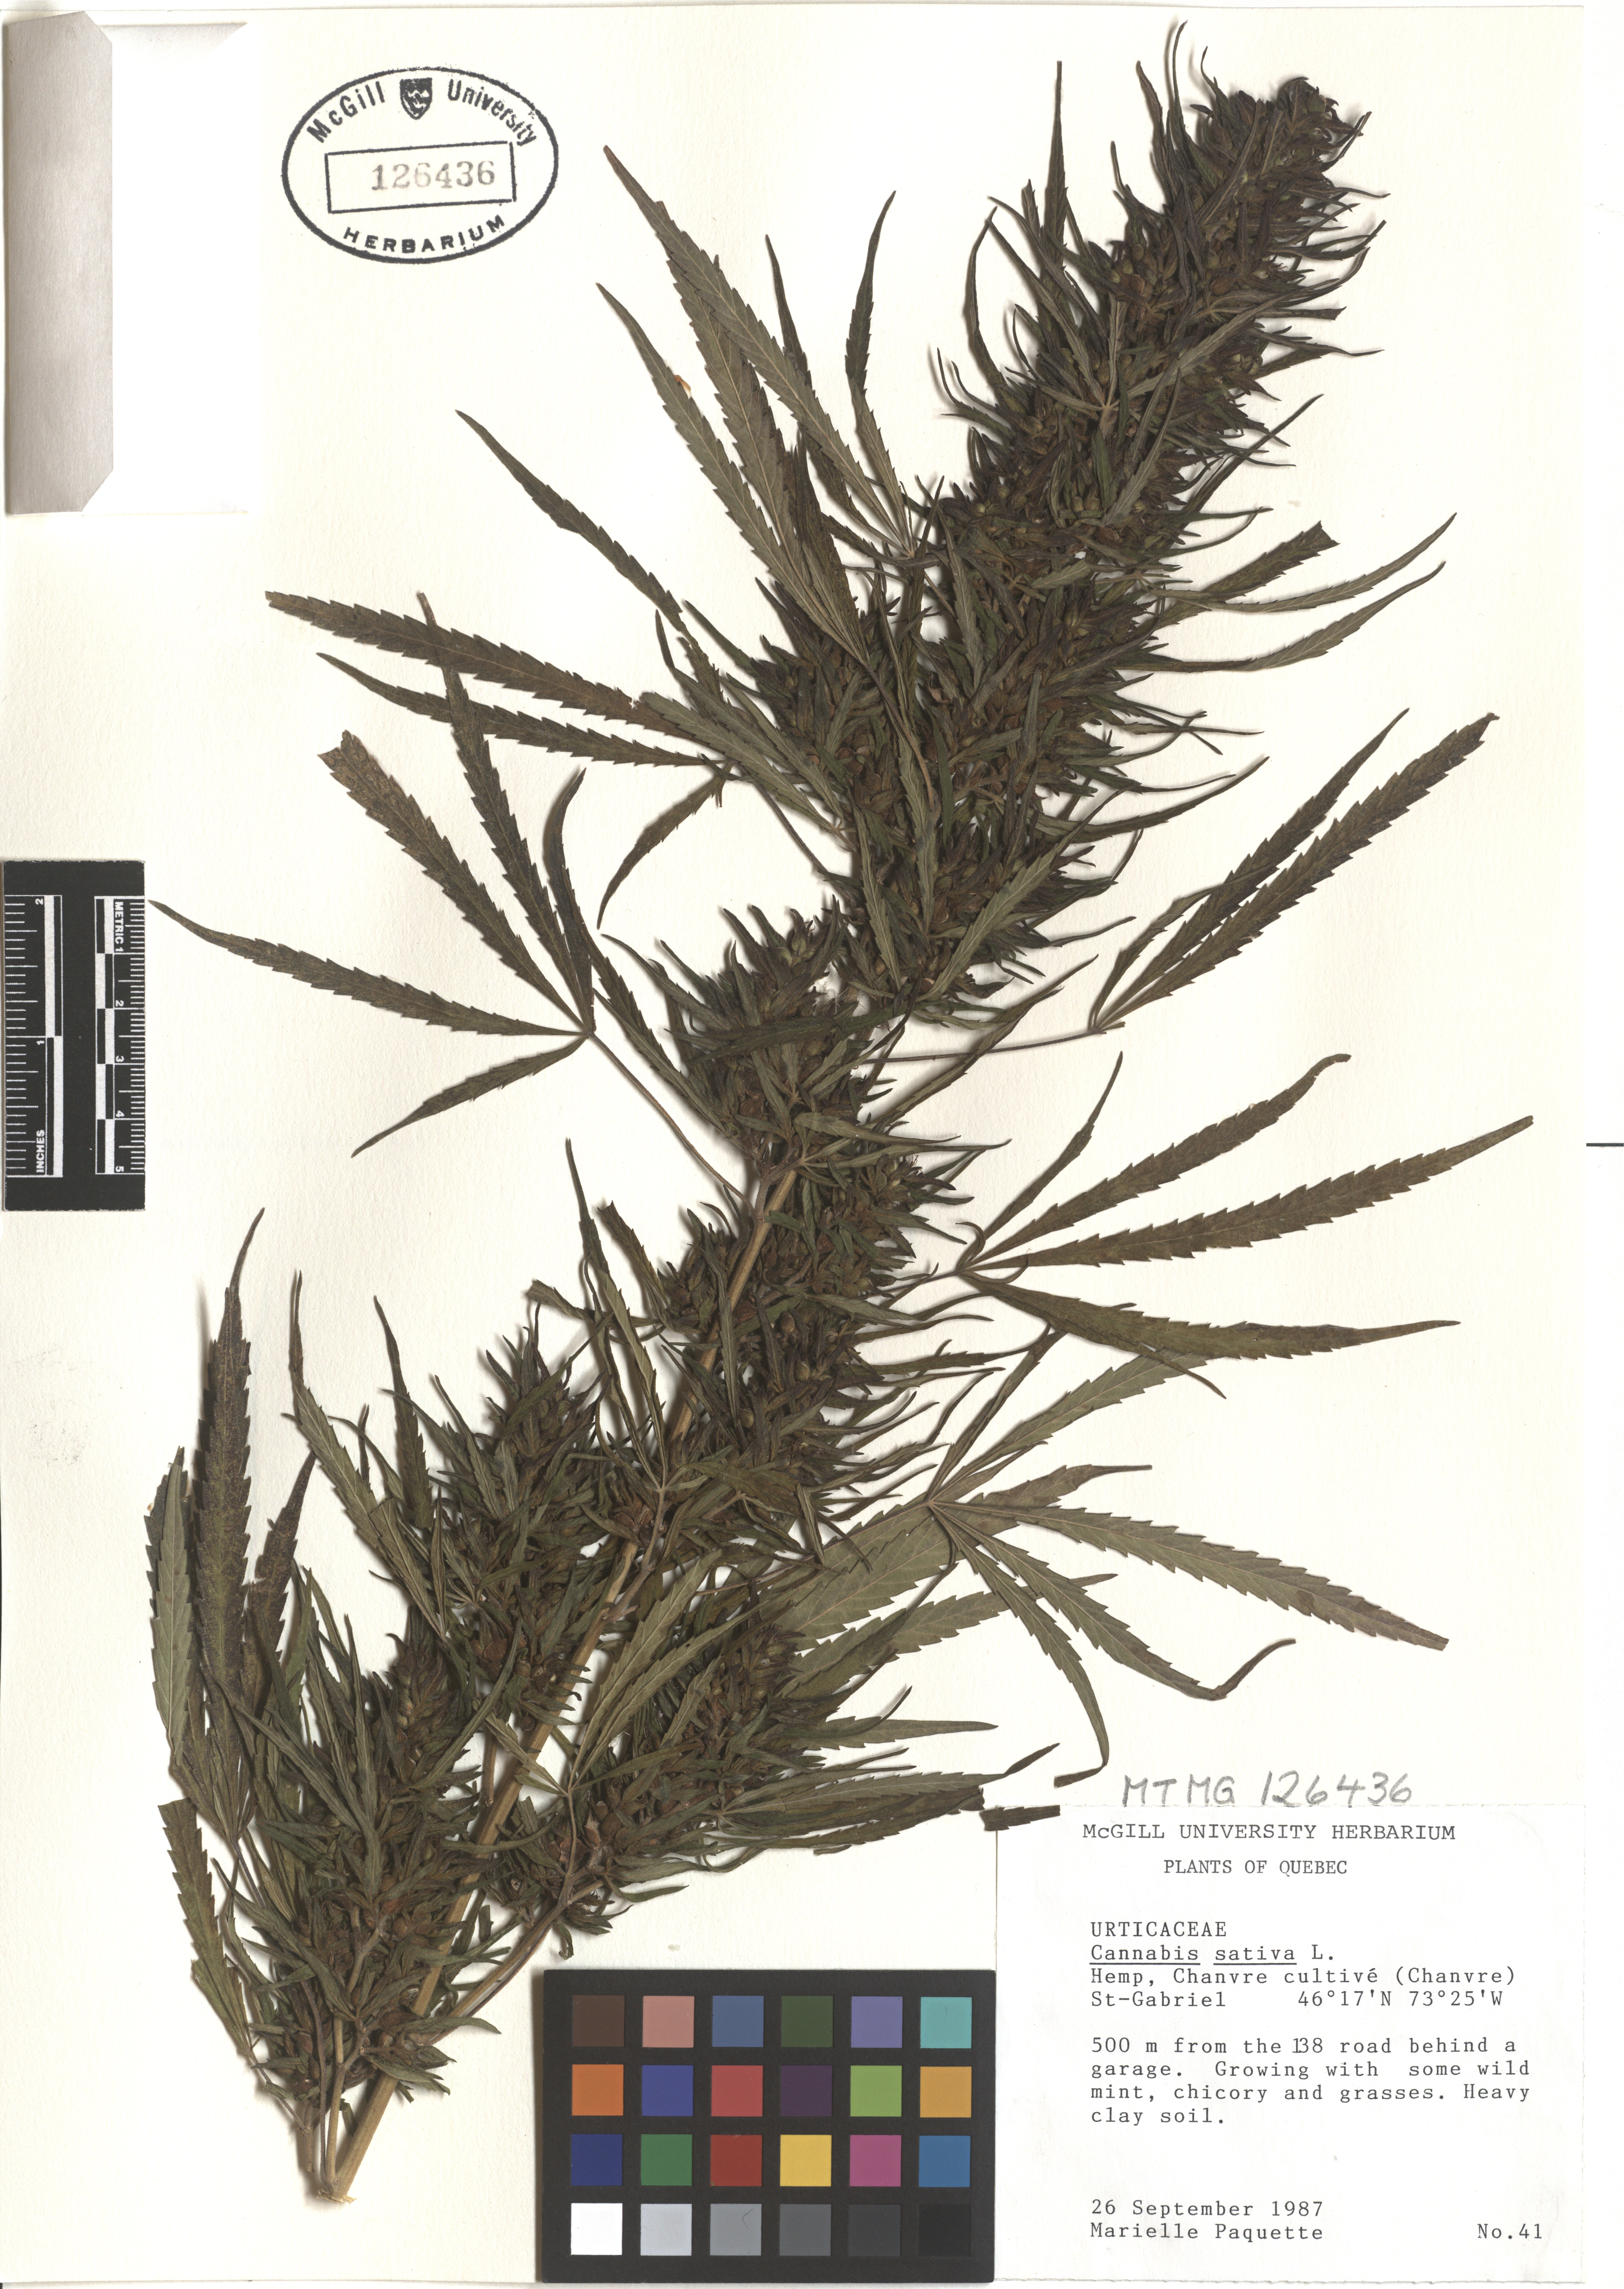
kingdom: Plantae
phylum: Tracheophyta
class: Magnoliopsida
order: Rosales
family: Cannabaceae
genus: Cannabis
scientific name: Cannabis sativa
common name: Hemp
